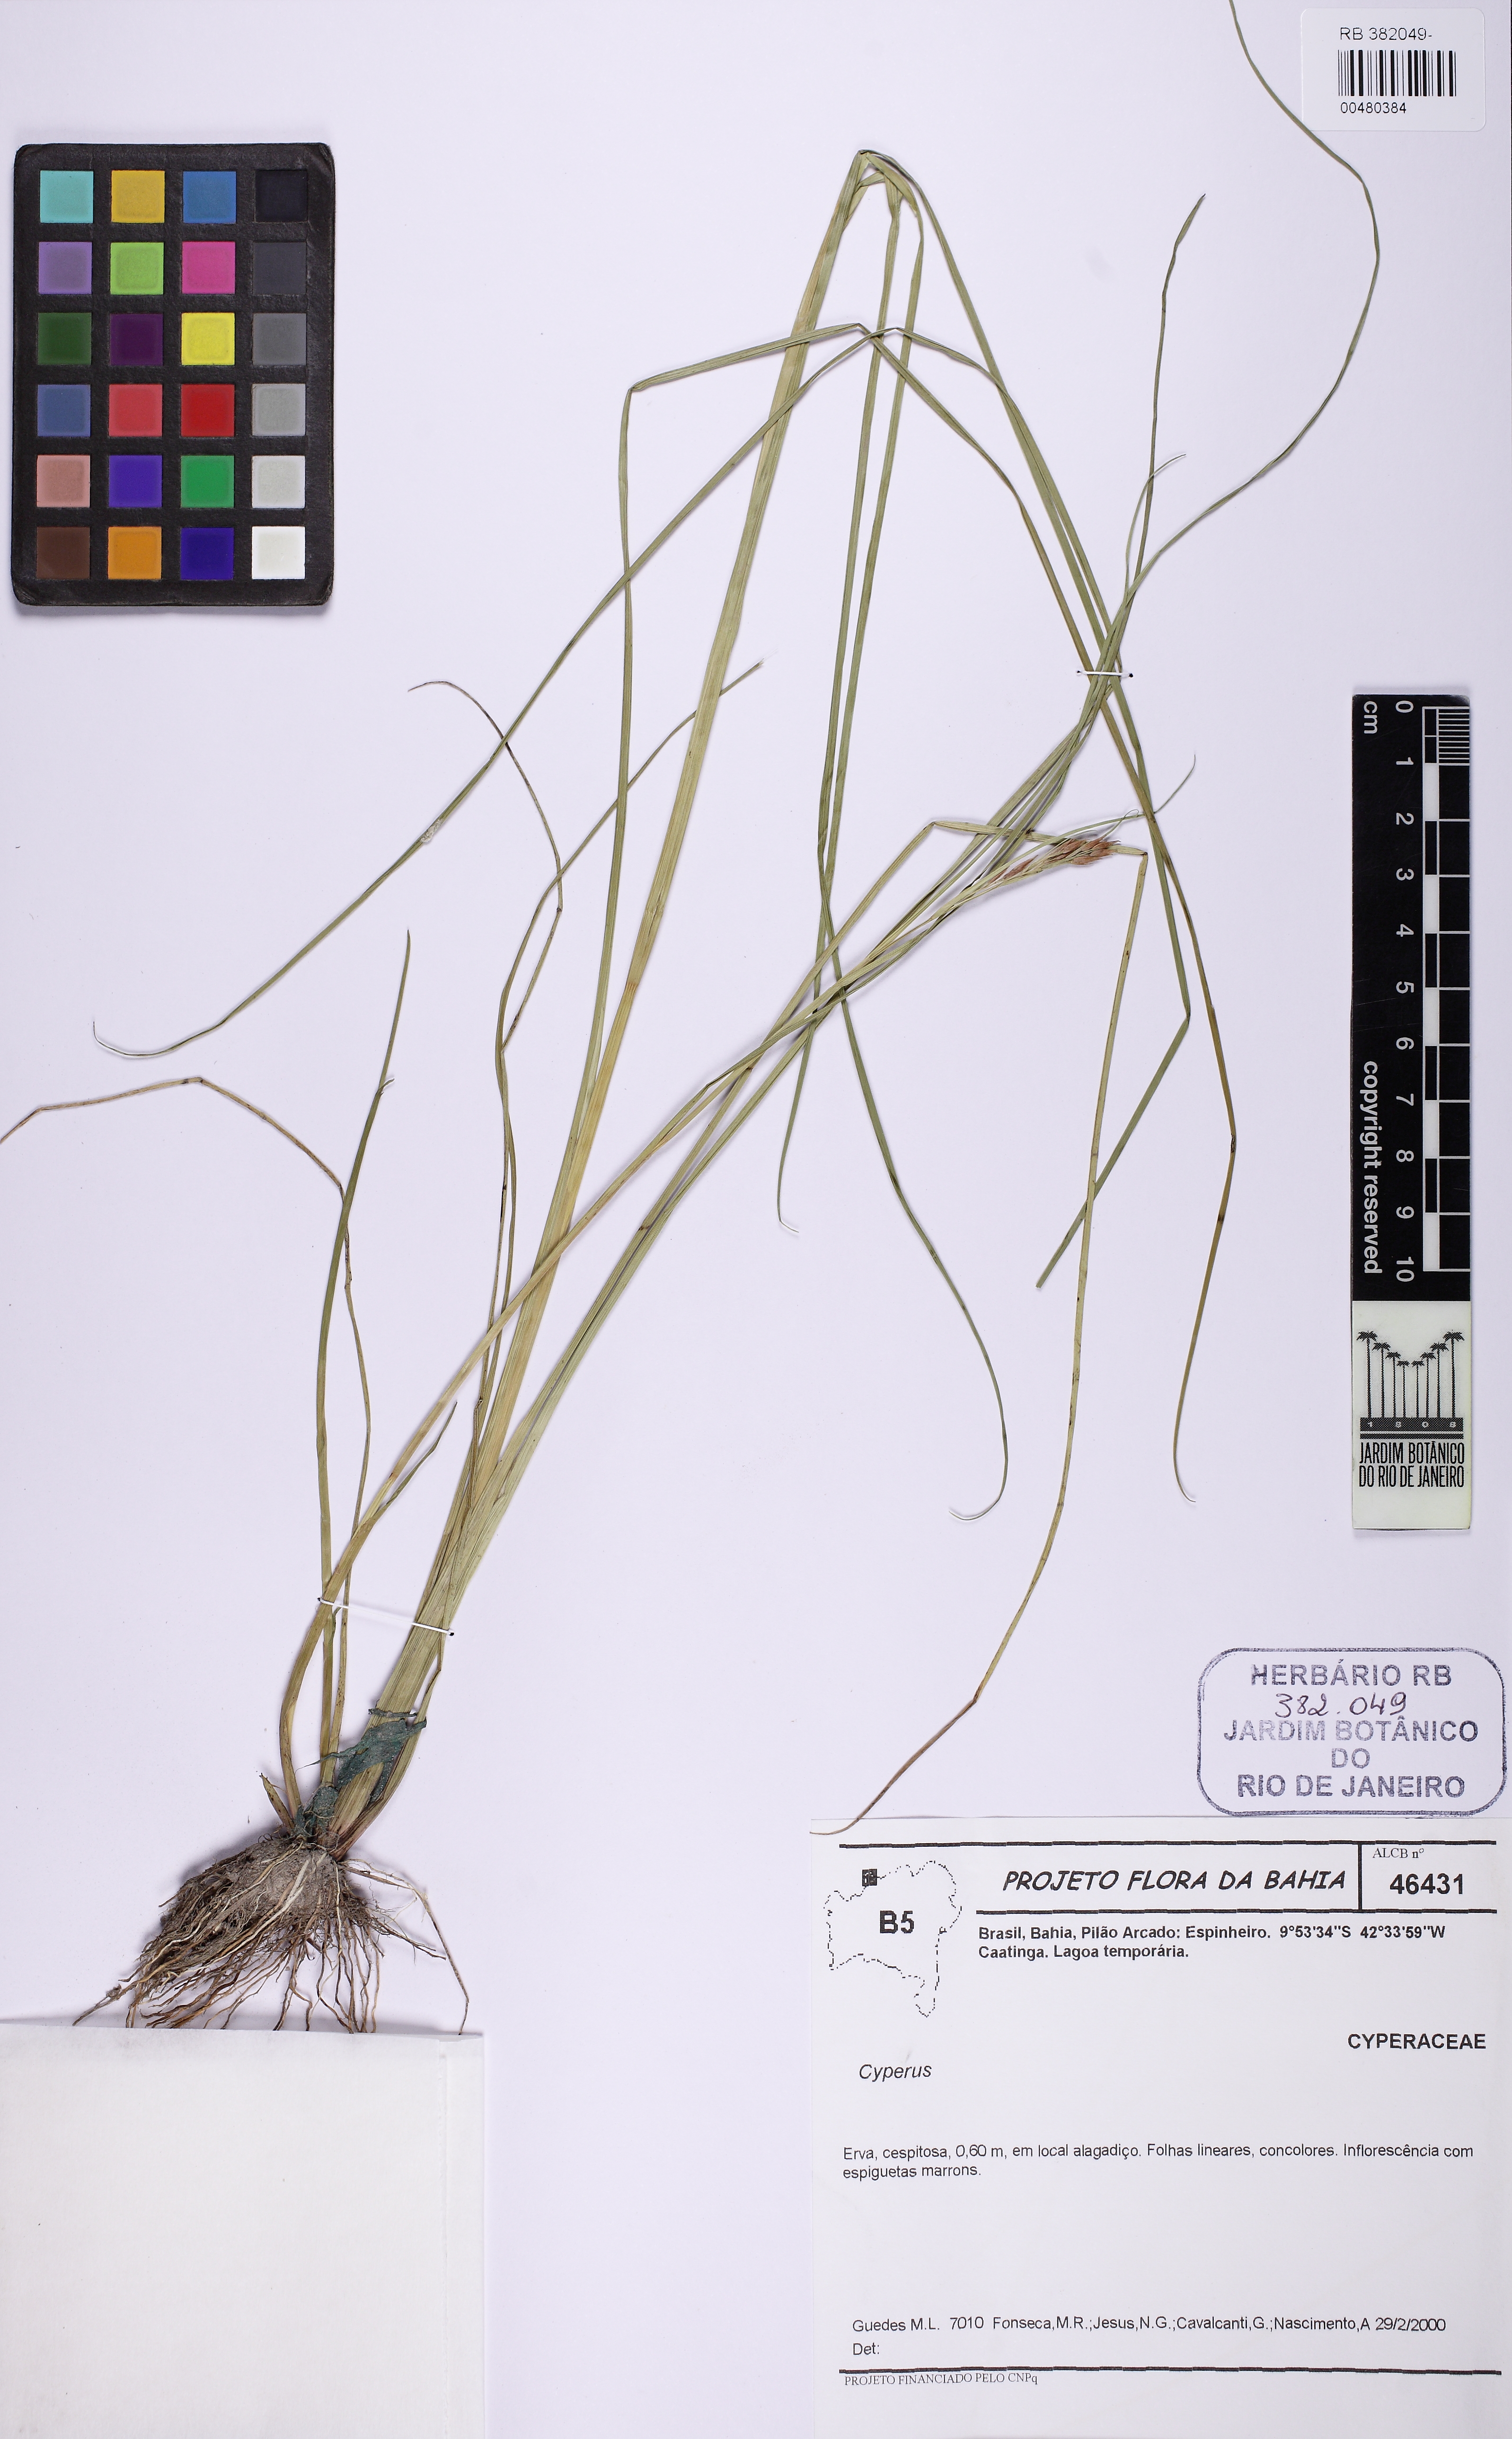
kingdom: Plantae
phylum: Tracheophyta
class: Liliopsida
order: Poales
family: Cyperaceae
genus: Rhynchospora
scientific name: Rhynchospora
